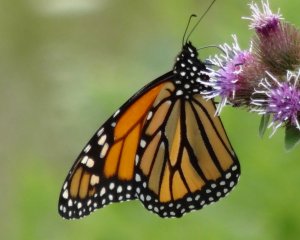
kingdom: Animalia
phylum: Arthropoda
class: Insecta
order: Lepidoptera
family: Nymphalidae
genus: Danaus
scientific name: Danaus plexippus
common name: Monarch
